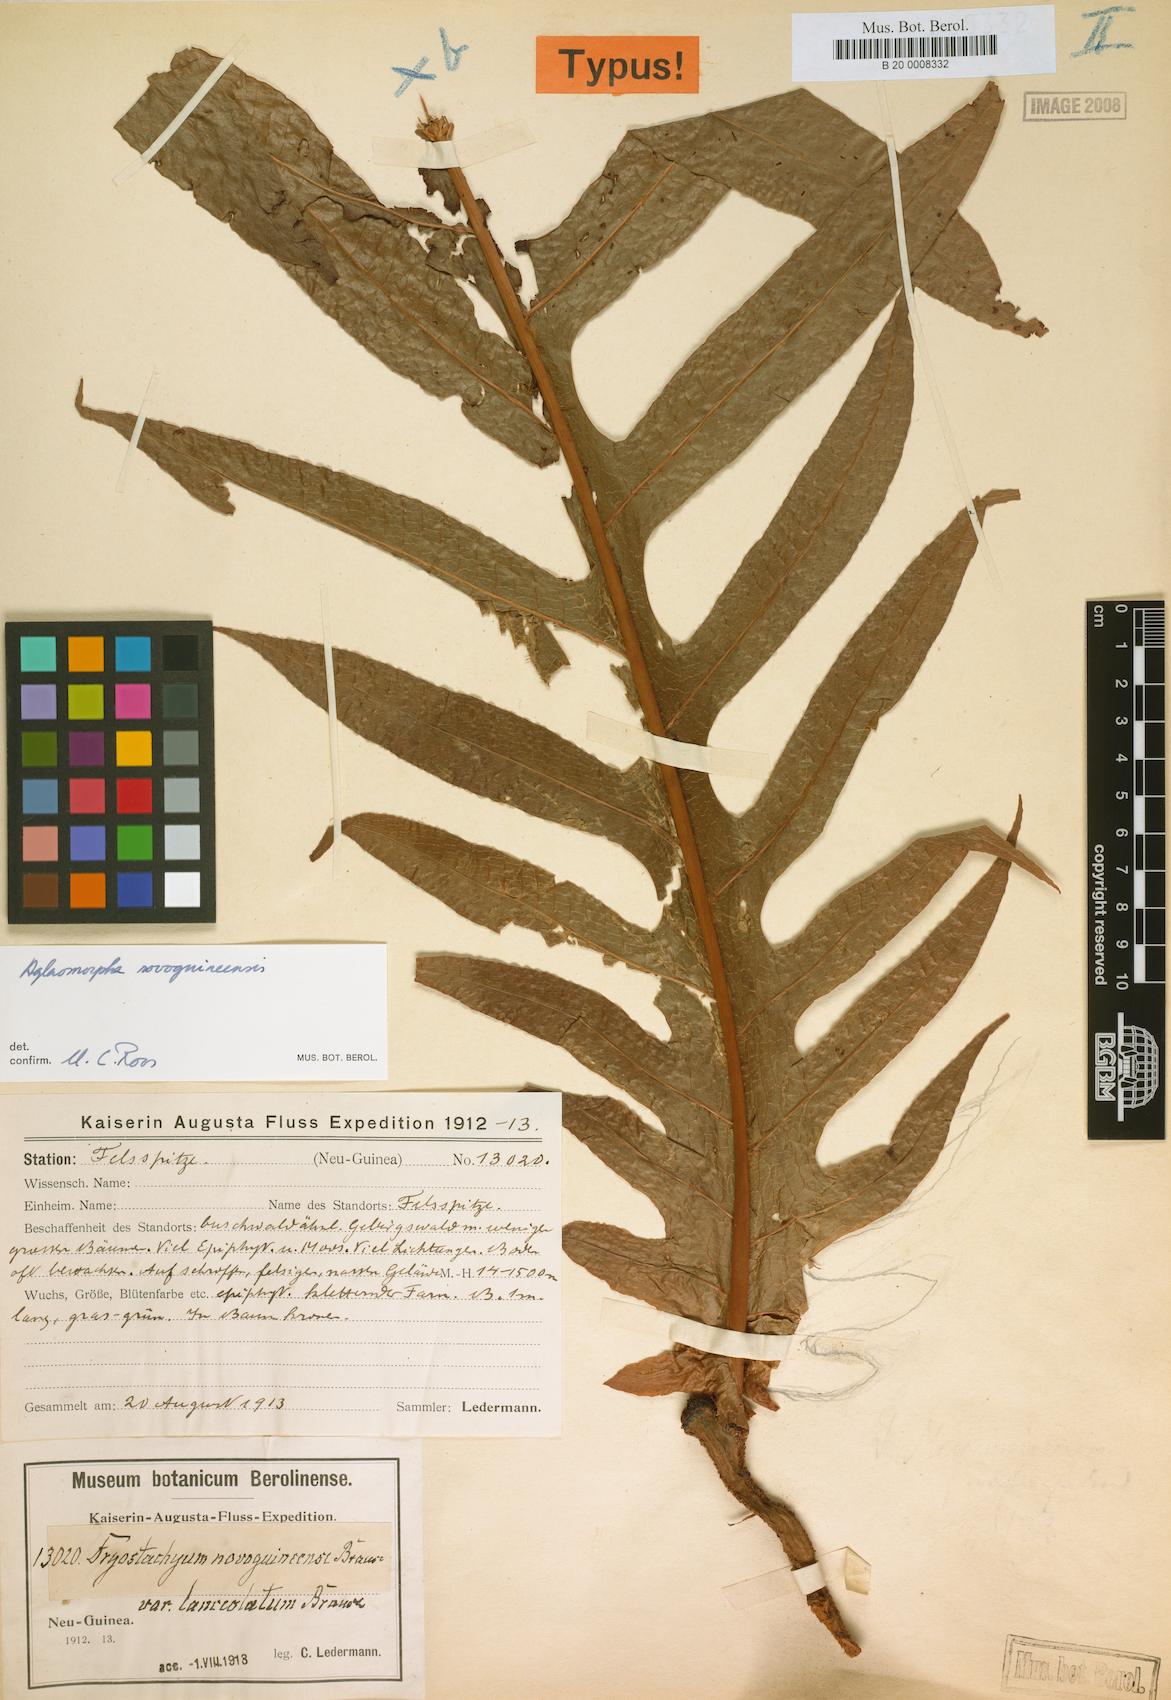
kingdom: Plantae
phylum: Tracheophyta
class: Polypodiopsida
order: Polypodiales
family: Polypodiaceae
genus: Drynaria
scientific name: Drynaria Aglaomorpha novoguineensis
